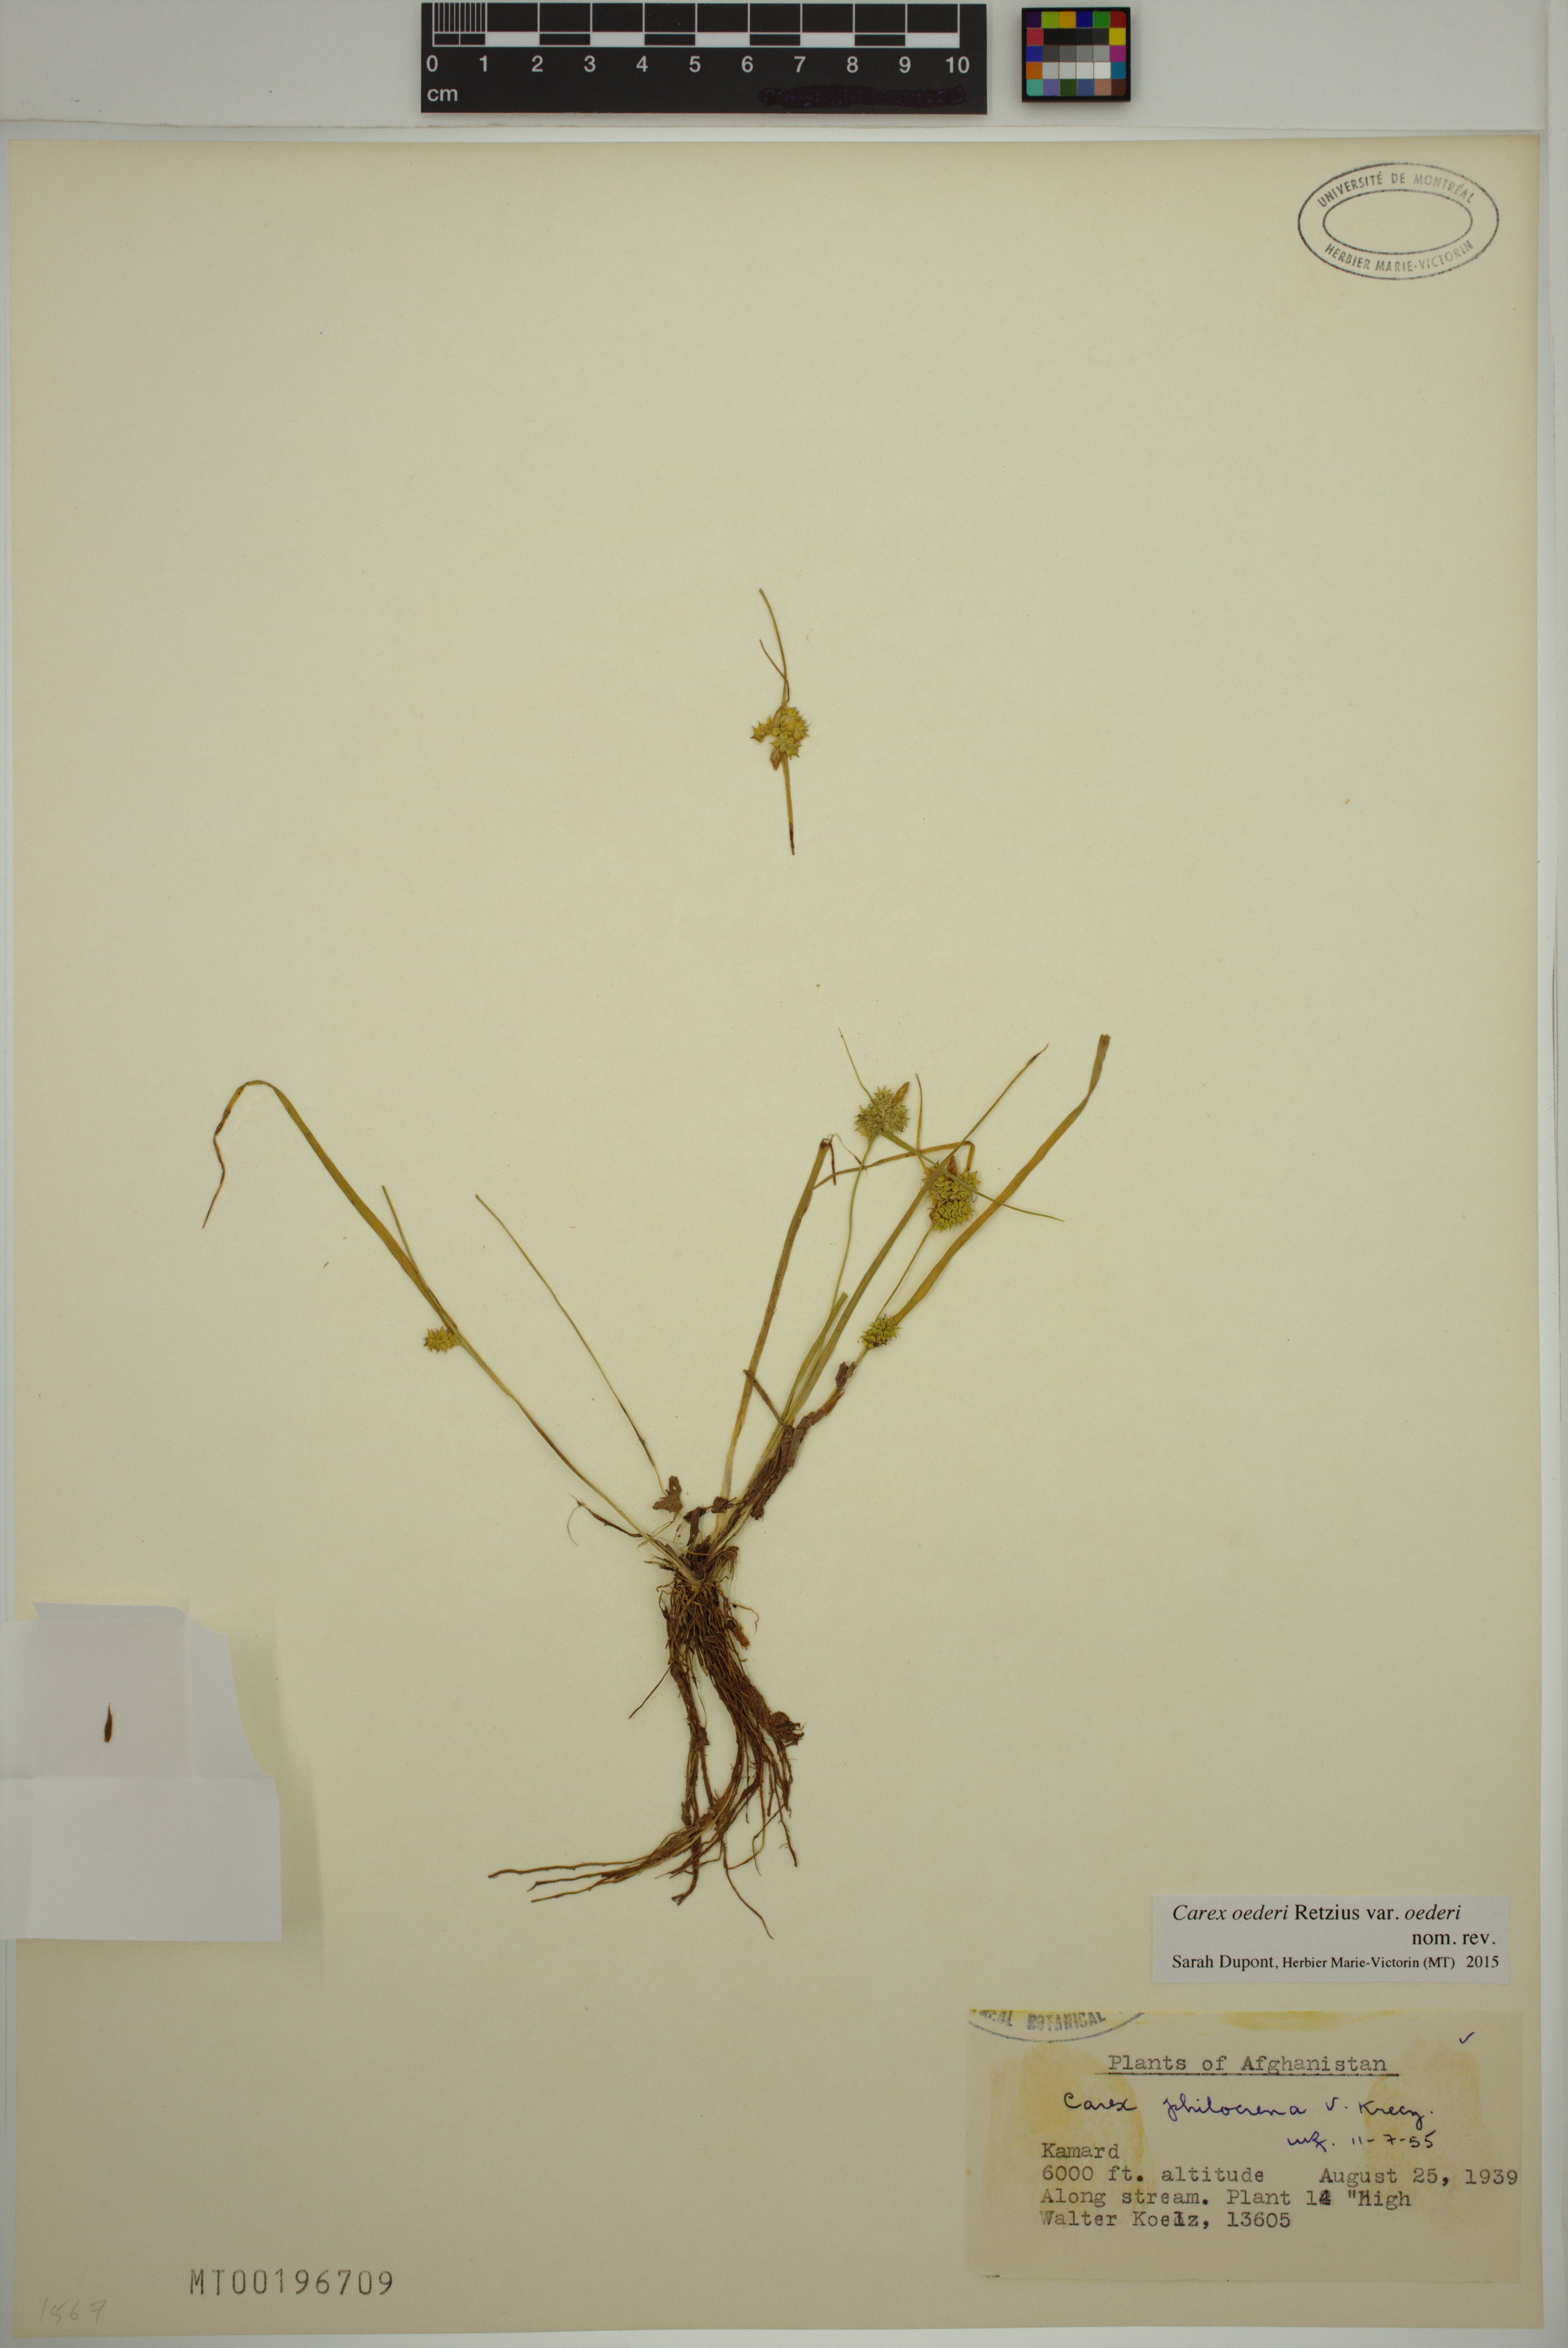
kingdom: Plantae
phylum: Tracheophyta
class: Liliopsida
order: Poales
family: Cyperaceae
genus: Carex
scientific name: Carex oederi
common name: Common & small-fruited yellow-sedge
